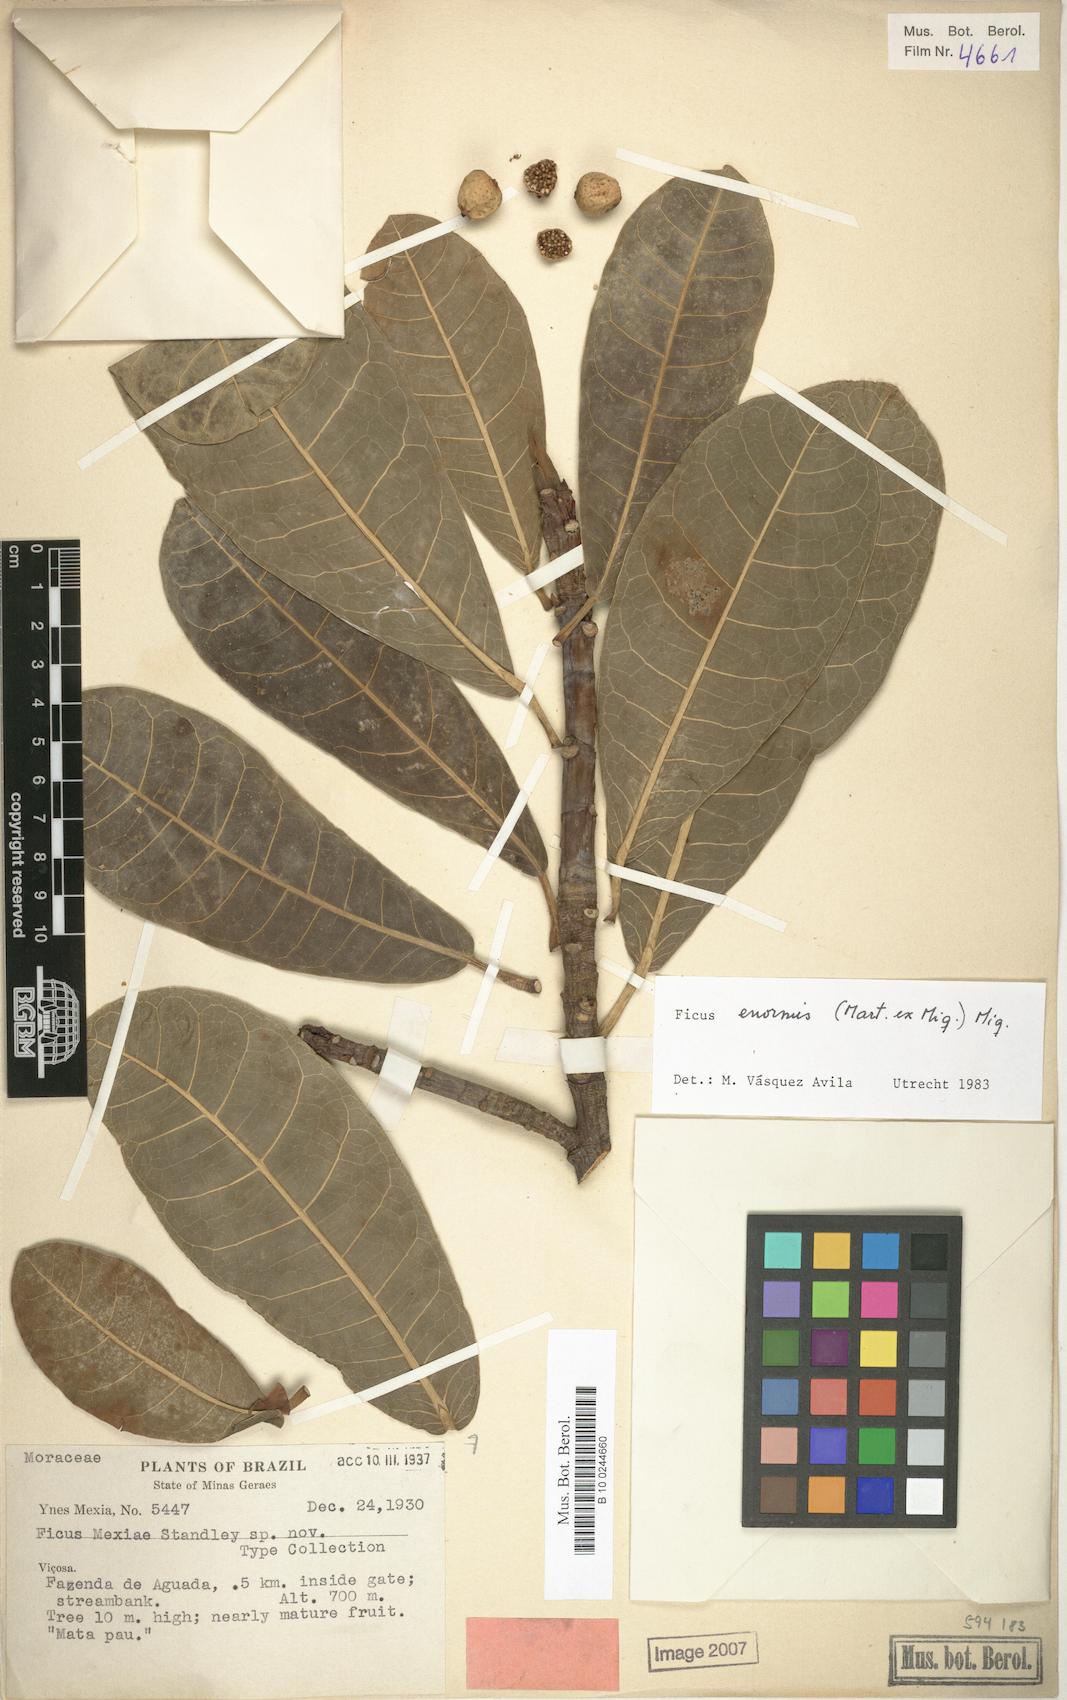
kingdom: Plantae
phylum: Tracheophyta
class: Magnoliopsida
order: Rosales
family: Moraceae
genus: Ficus
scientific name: Ficus enormis
